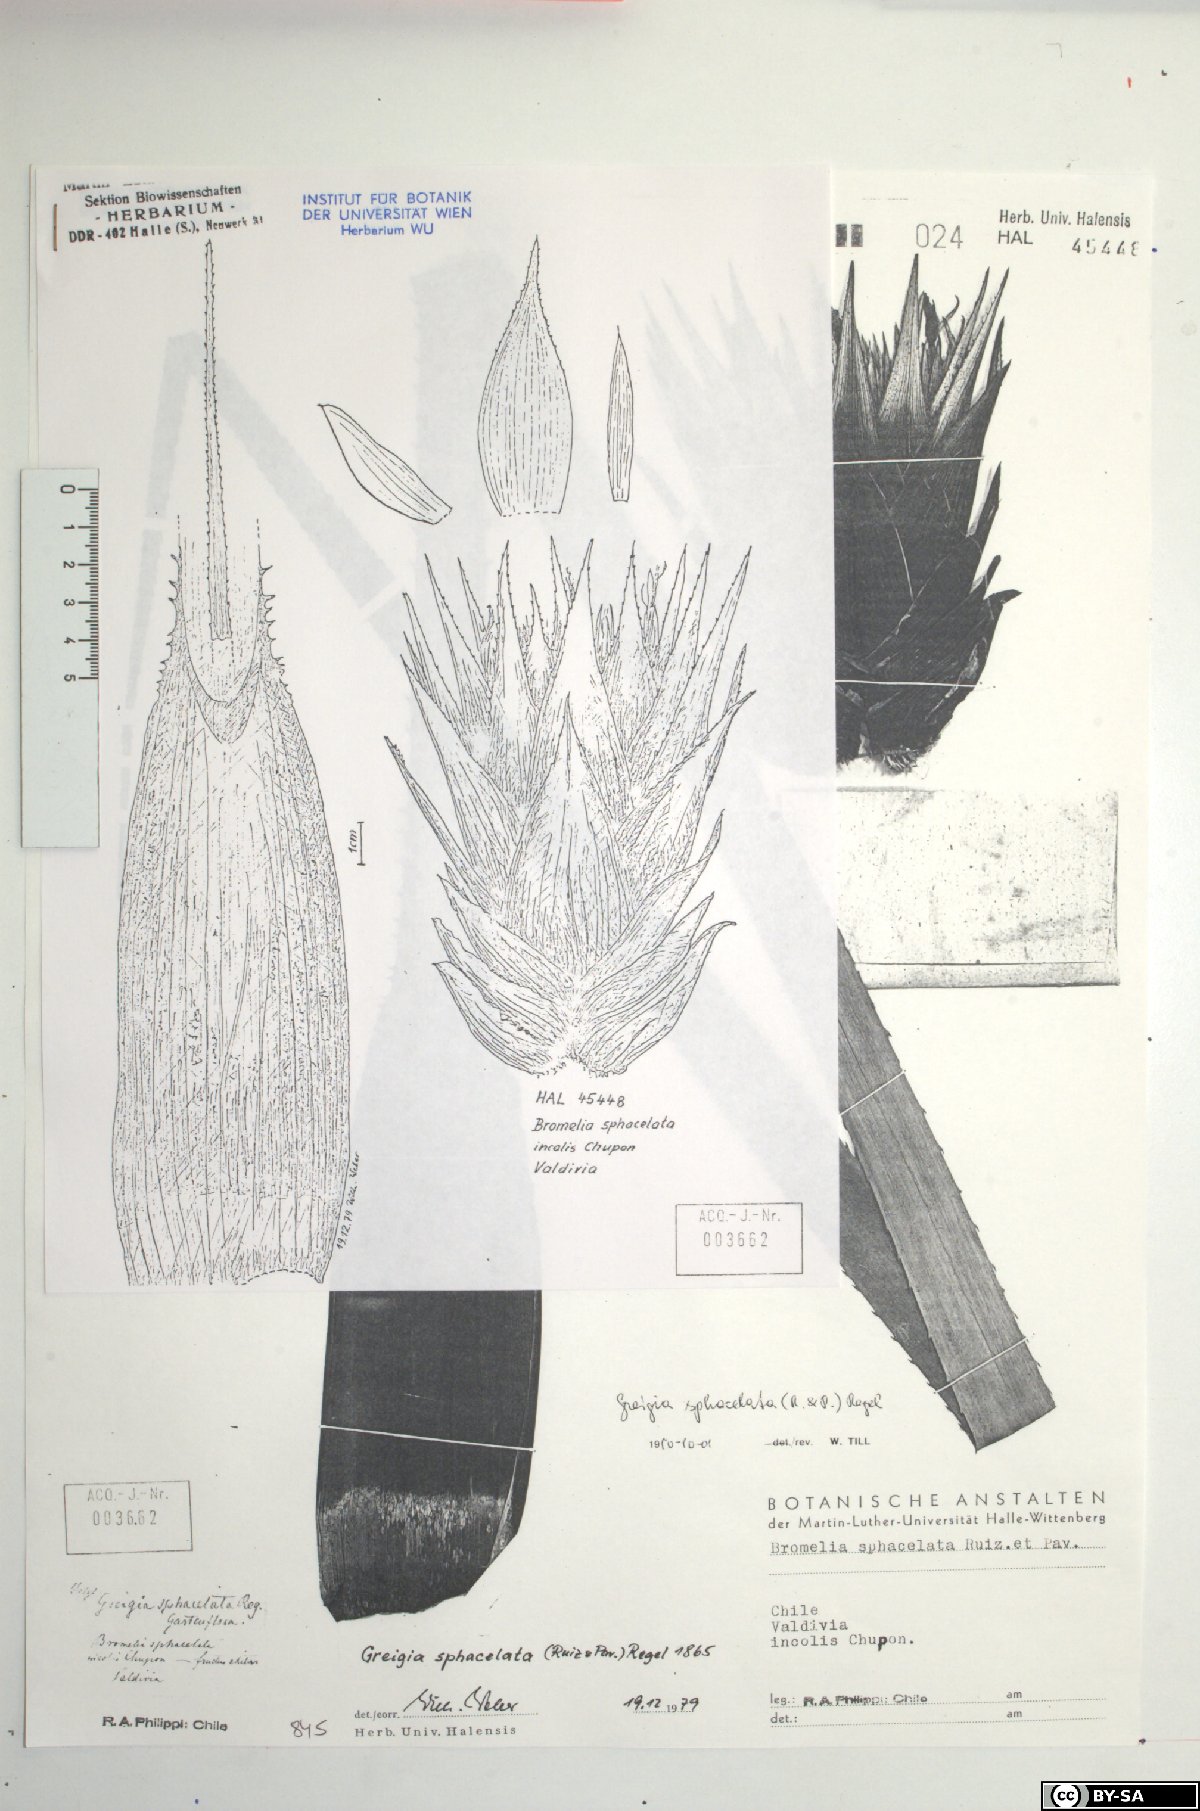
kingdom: Plantae
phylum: Tracheophyta
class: Liliopsida
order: Poales
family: Bromeliaceae
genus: Greigia
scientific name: Greigia sphacelata
